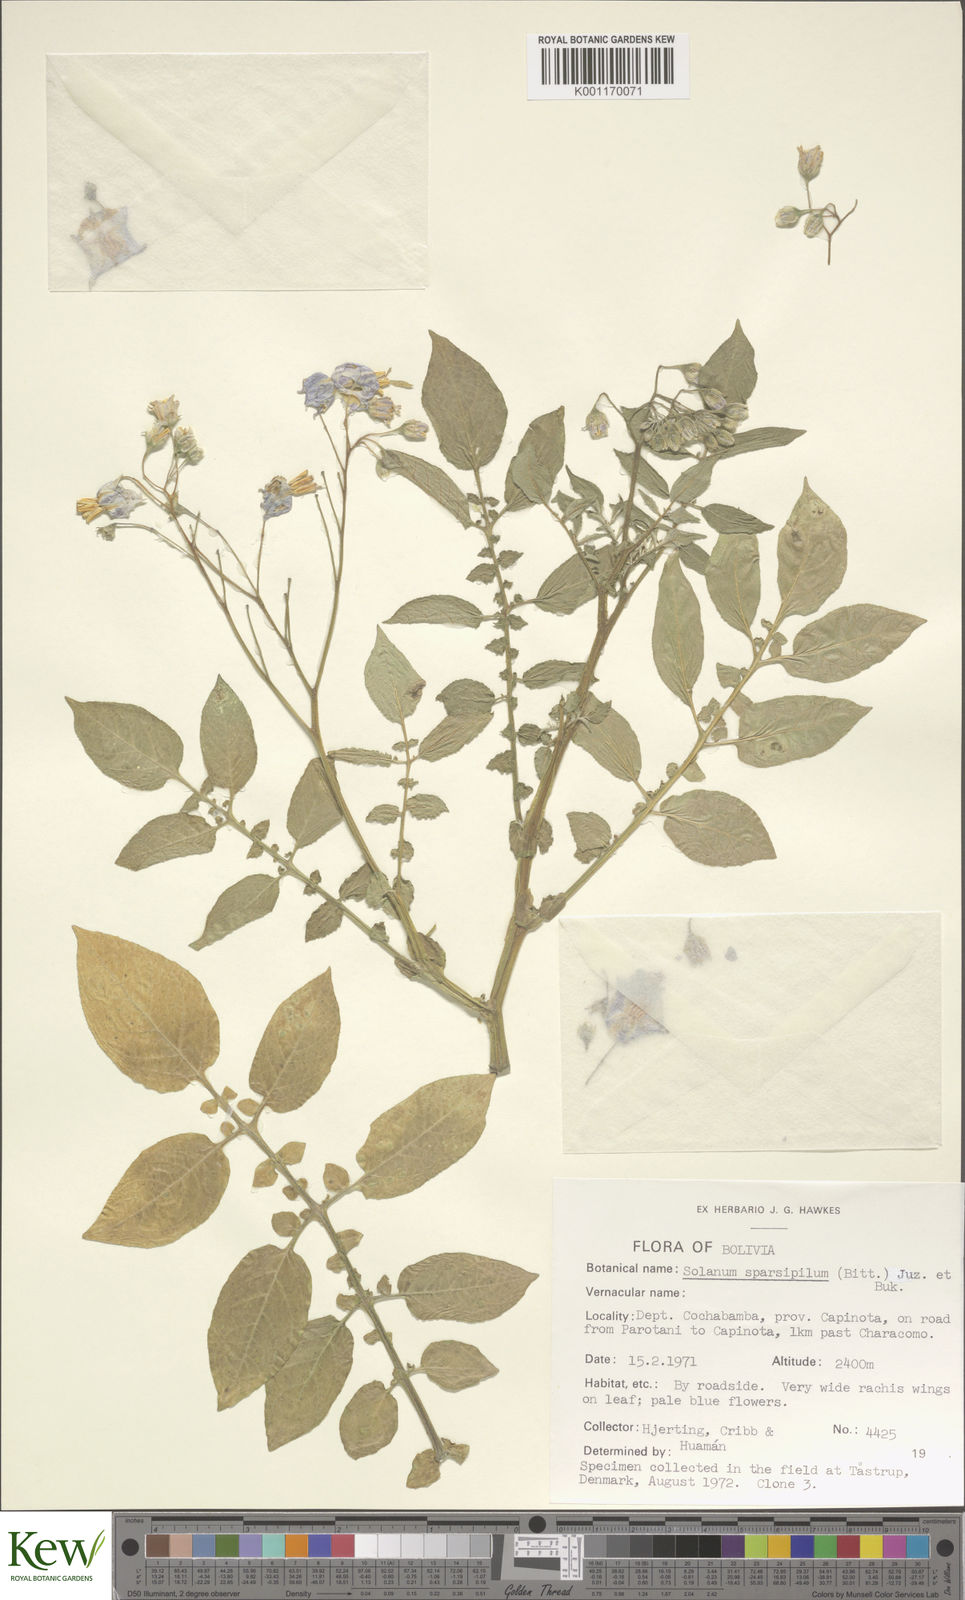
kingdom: Plantae
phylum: Tracheophyta
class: Magnoliopsida
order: Solanales
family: Solanaceae
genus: Solanum
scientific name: Solanum brevicaule
